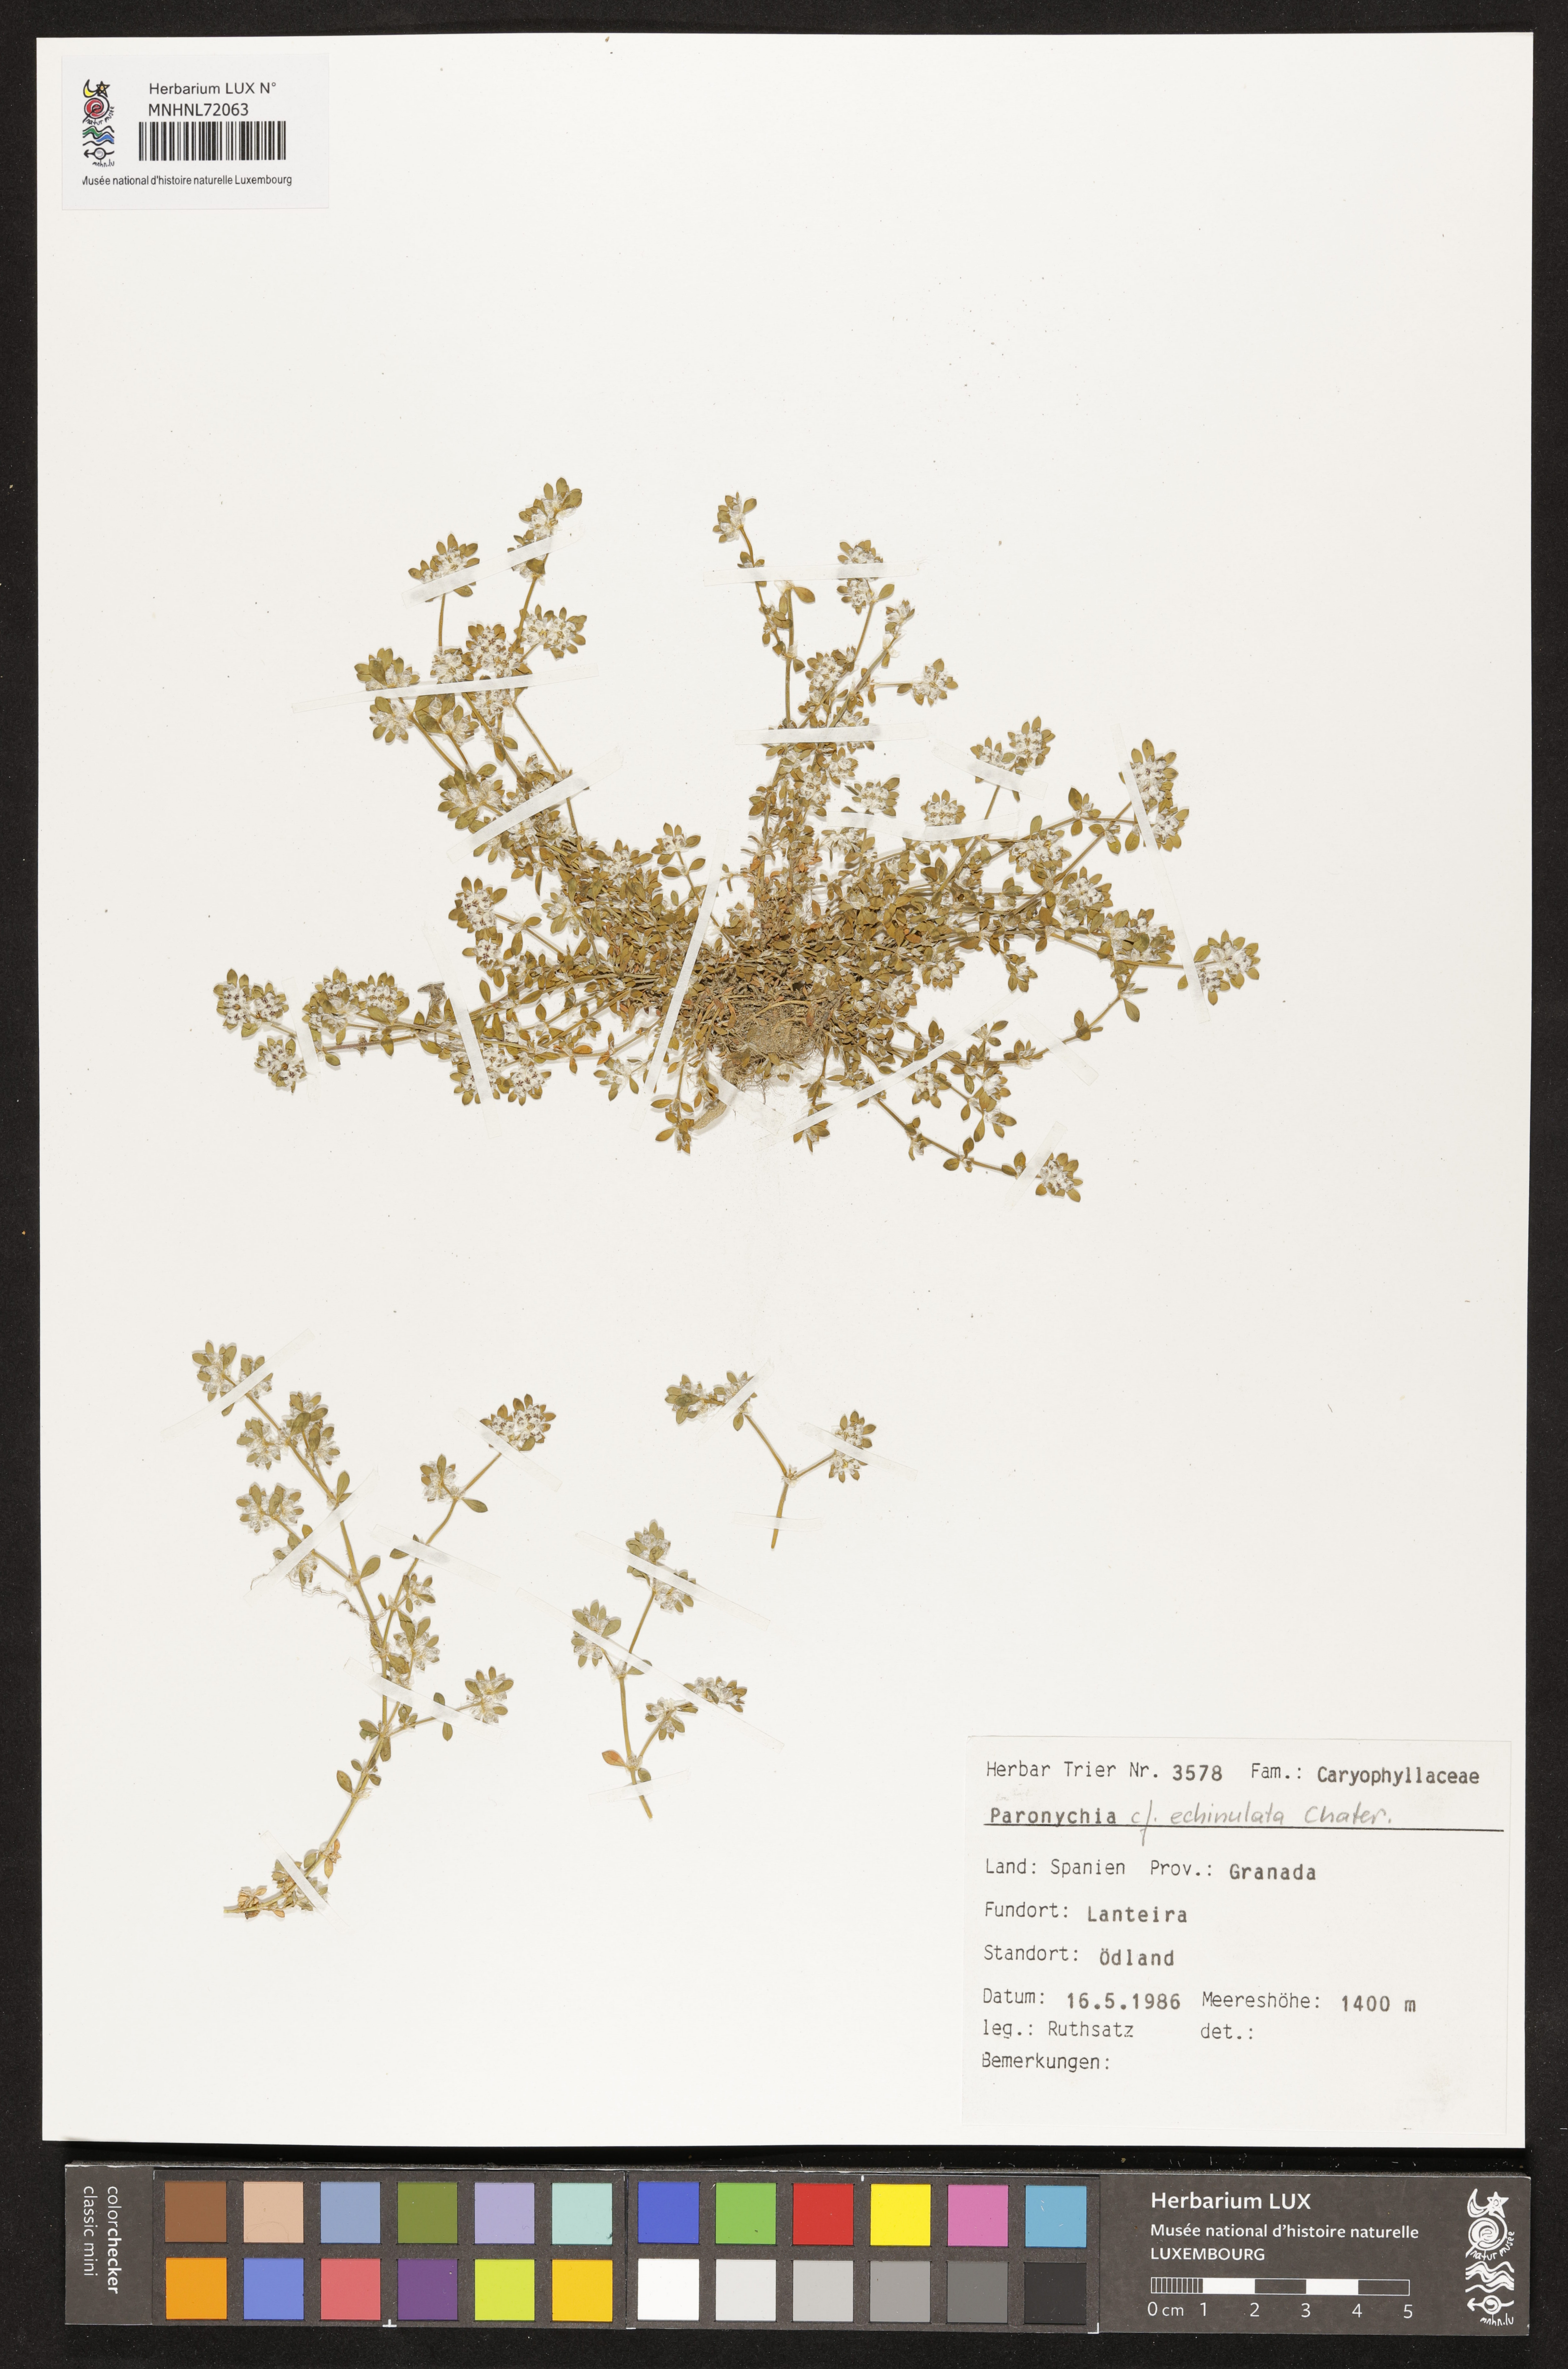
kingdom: Plantae
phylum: Tracheophyta
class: Magnoliopsida
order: Caryophyllales
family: Caryophyllaceae
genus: Paronychia
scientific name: Paronychia echinulata
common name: Eurasian nailwort
